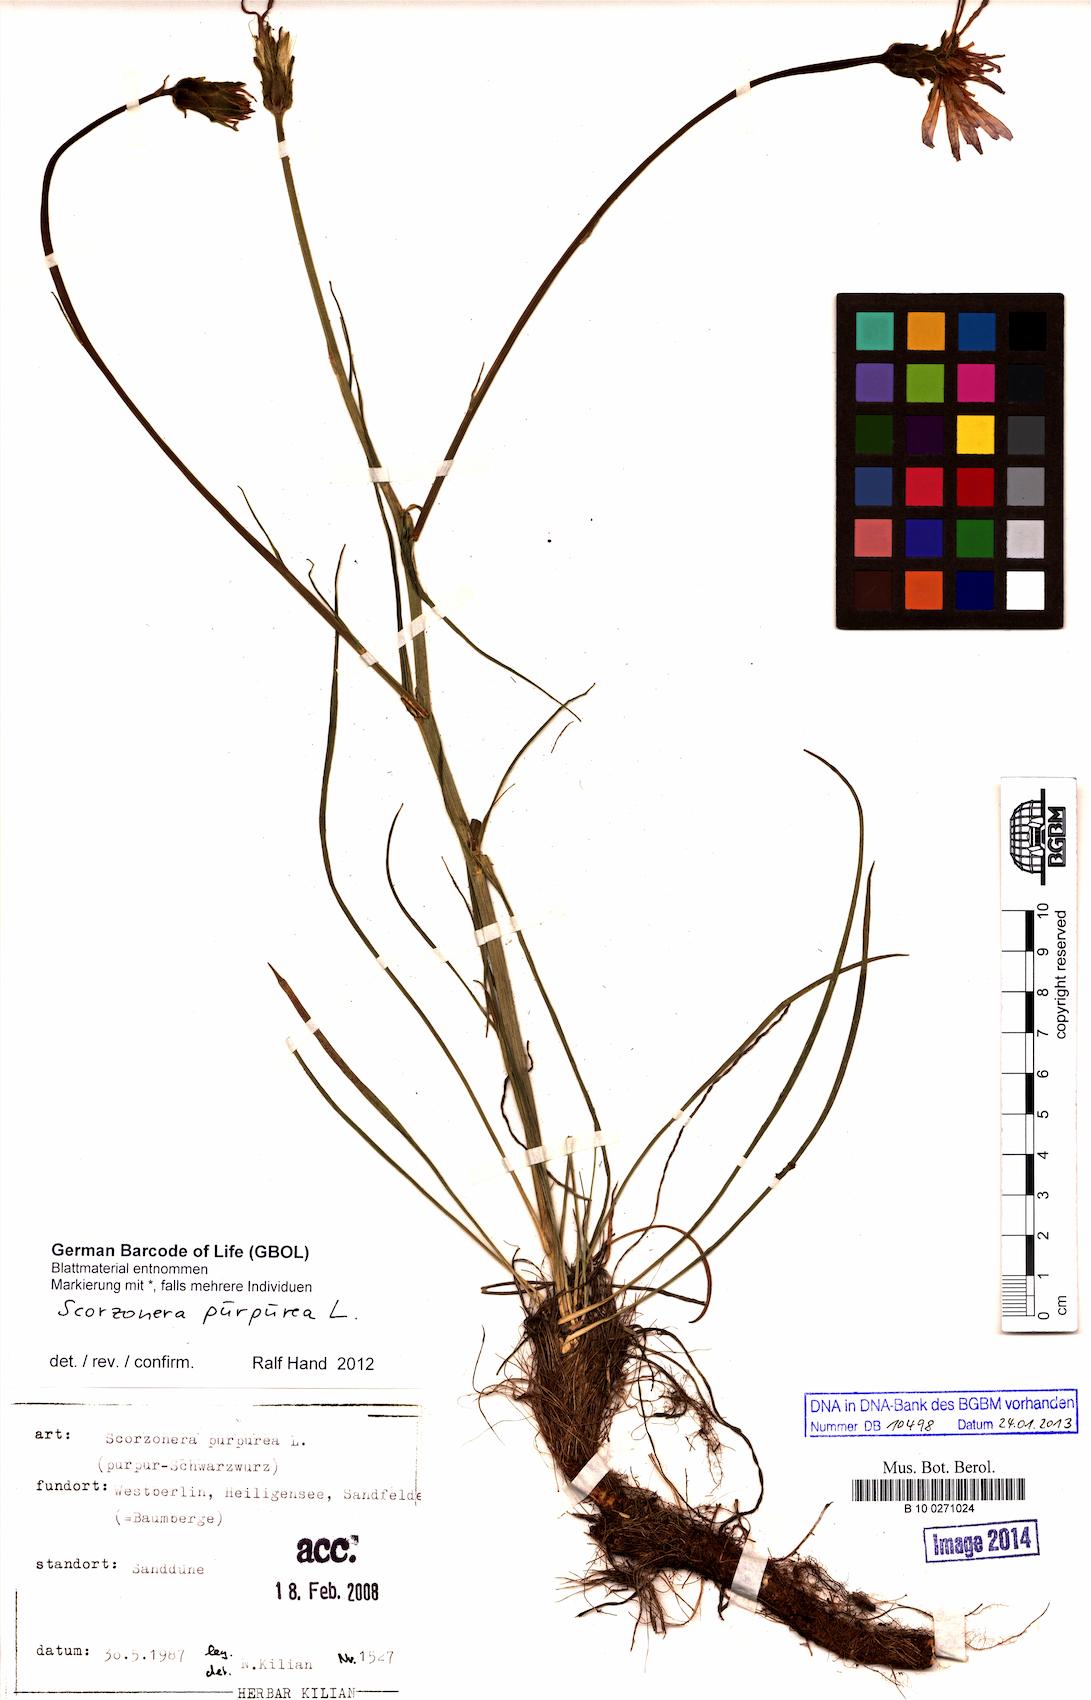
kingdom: Plantae
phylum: Tracheophyta
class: Magnoliopsida
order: Asterales
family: Asteraceae
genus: Scorzonera
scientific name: Scorzonera purpurea
